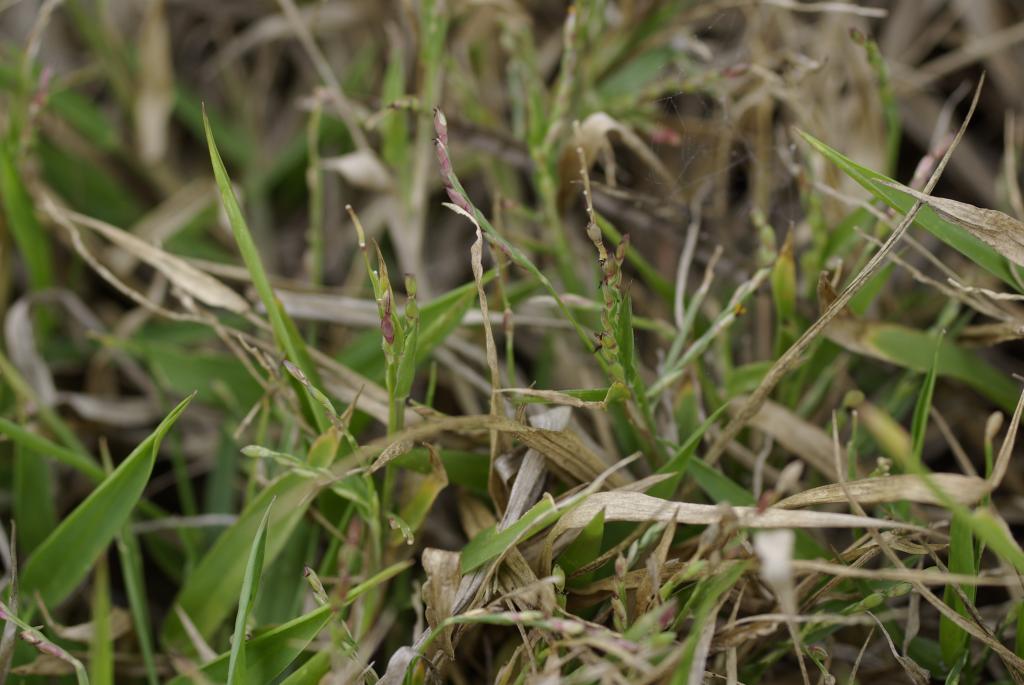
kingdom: Plantae
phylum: Tracheophyta
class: Liliopsida
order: Poales
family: Poaceae
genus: Urochloa
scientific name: Urochloa subquadripara
